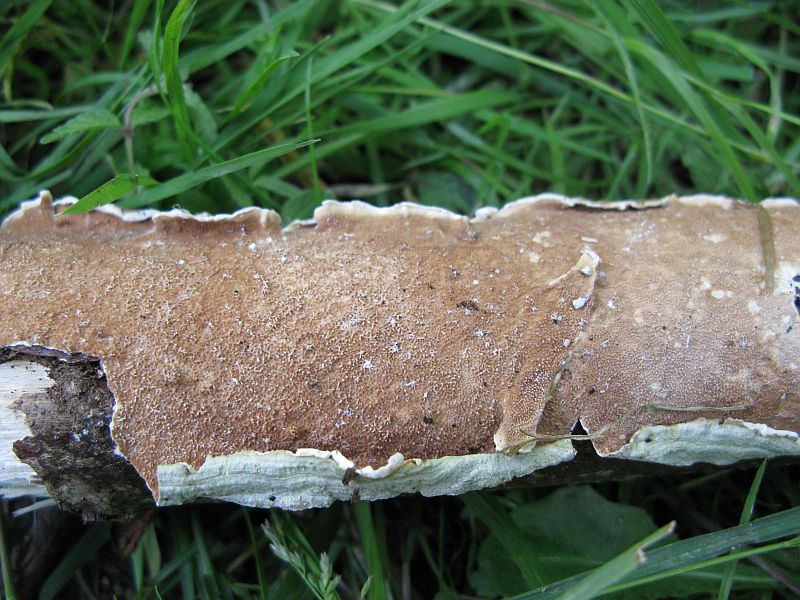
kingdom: Fungi
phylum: Basidiomycota
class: Agaricomycetes
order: Polyporales
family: Irpicaceae
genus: Byssomerulius
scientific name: Byssomerulius corium
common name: læder-åresvamp
